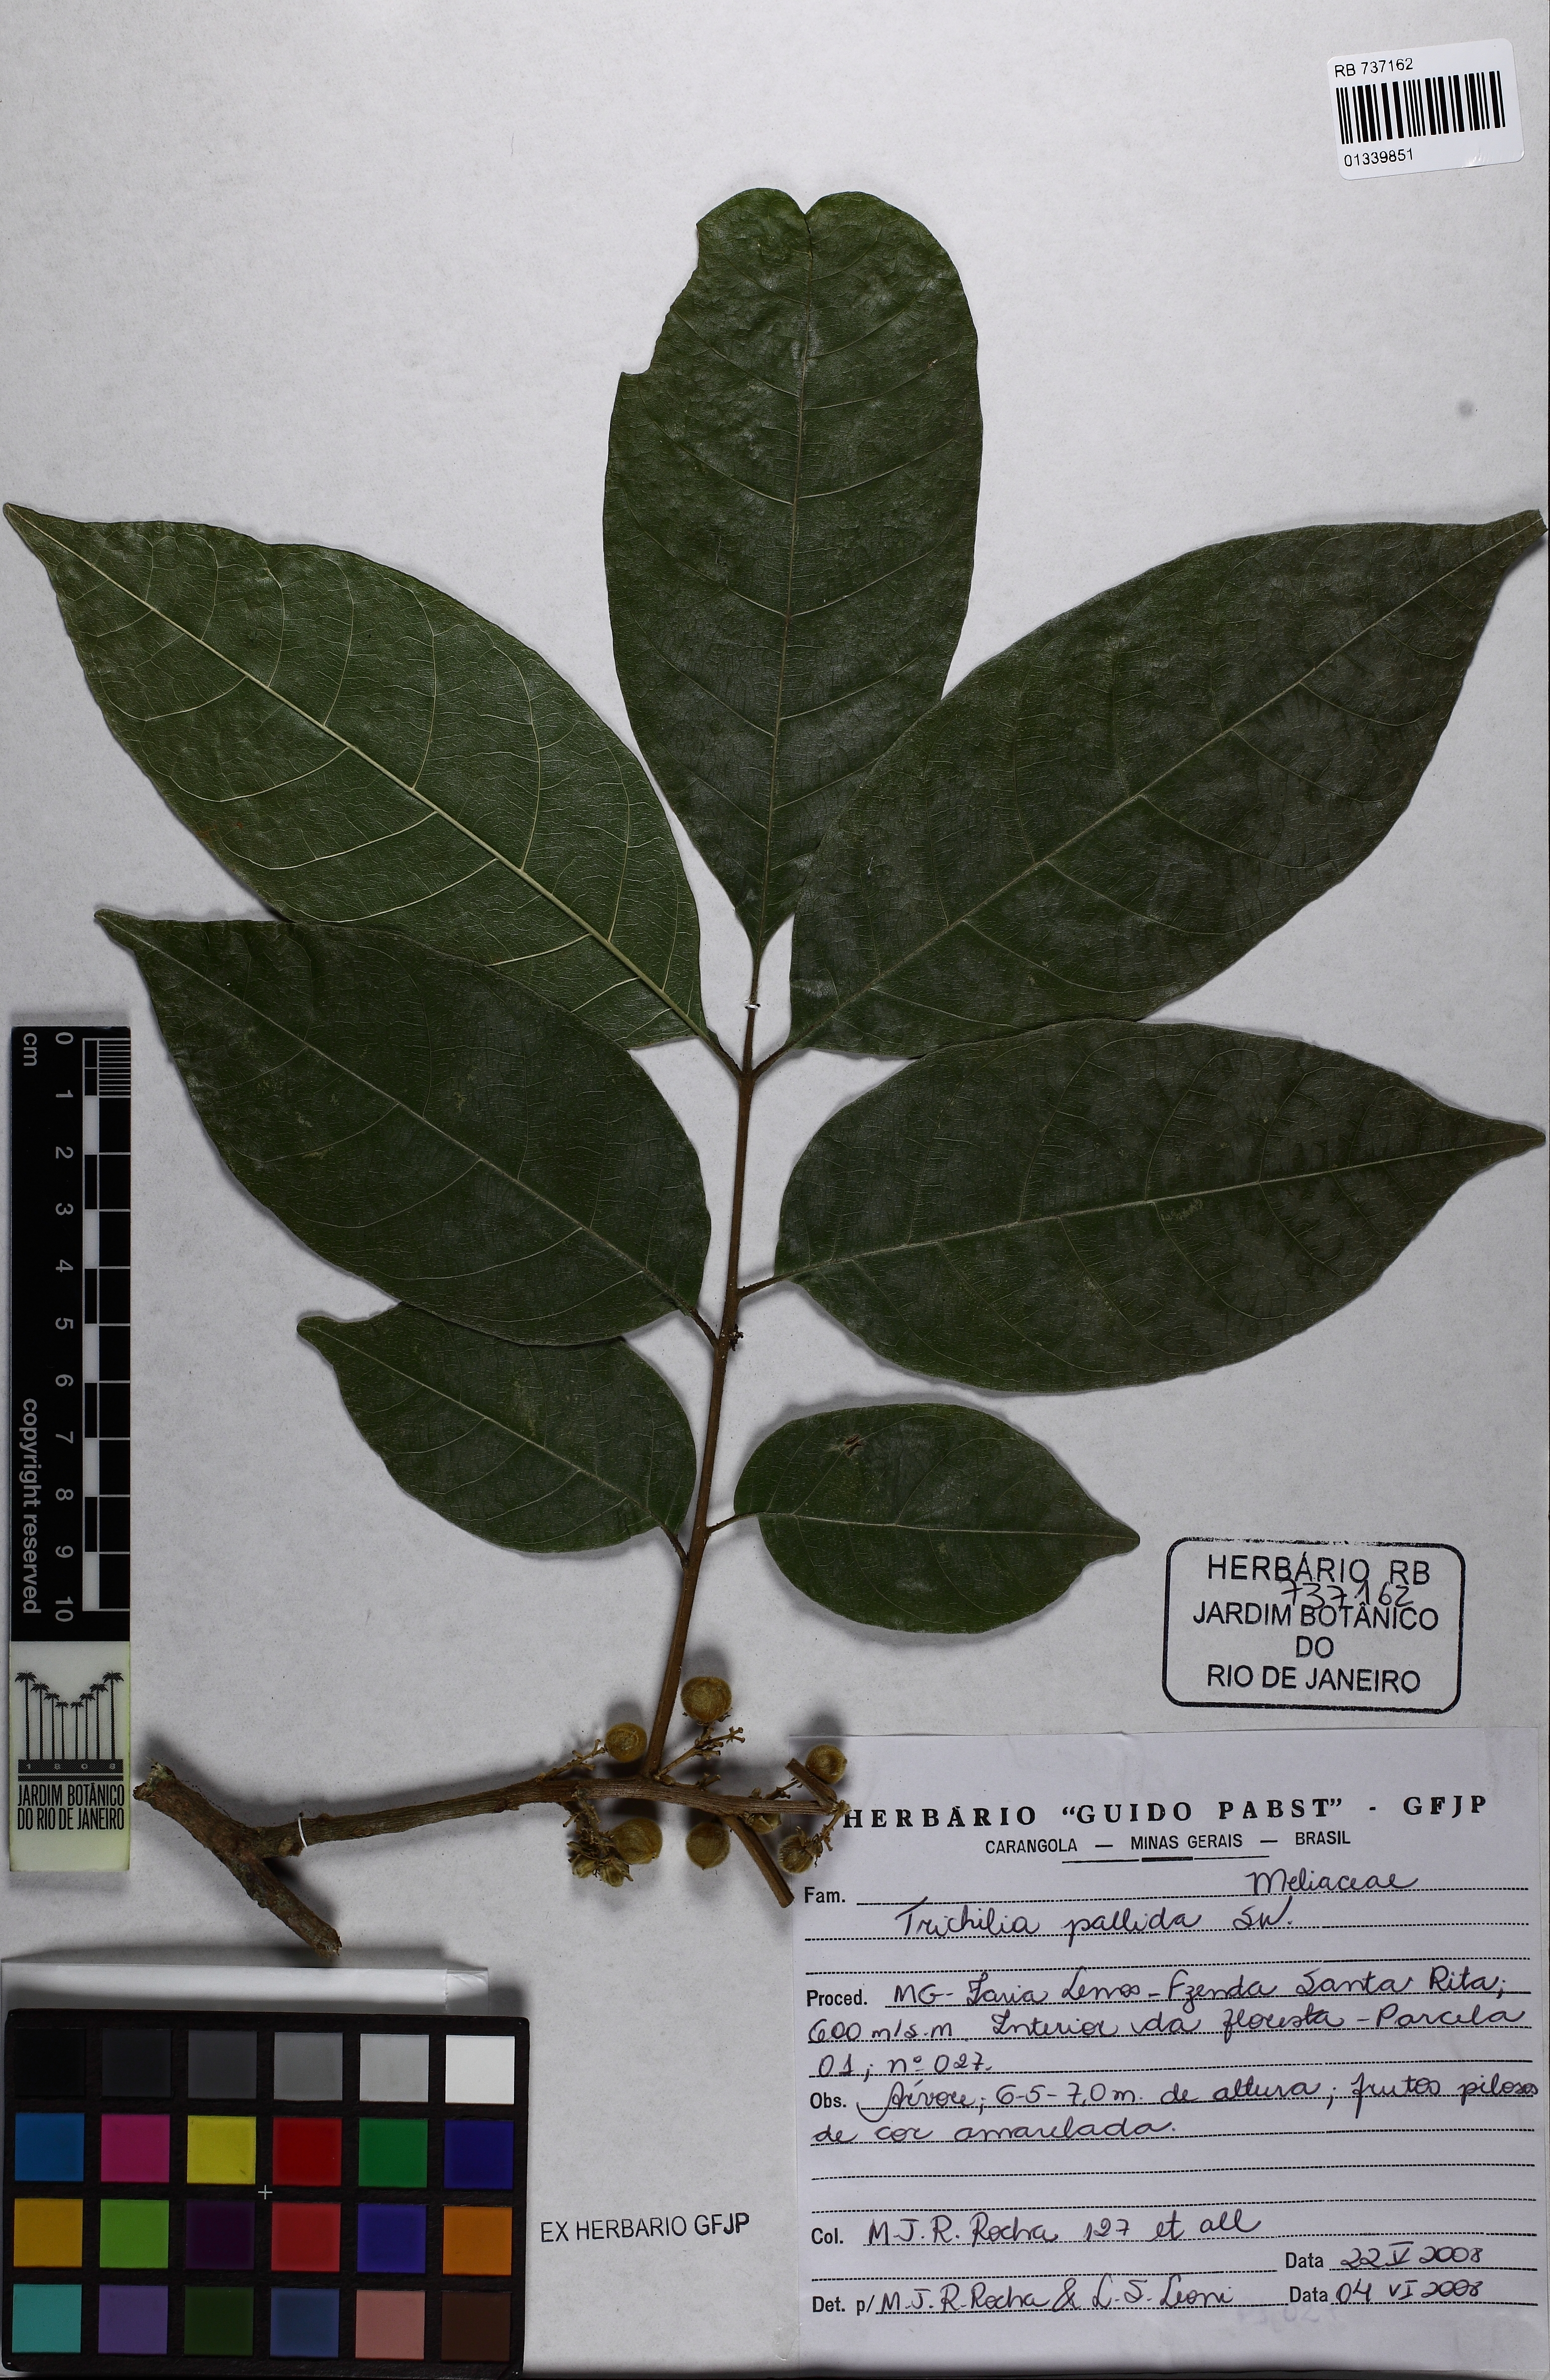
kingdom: Plantae
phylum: Tracheophyta
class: Magnoliopsida
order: Sapindales
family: Meliaceae
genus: Trichilia
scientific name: Trichilia pallida
